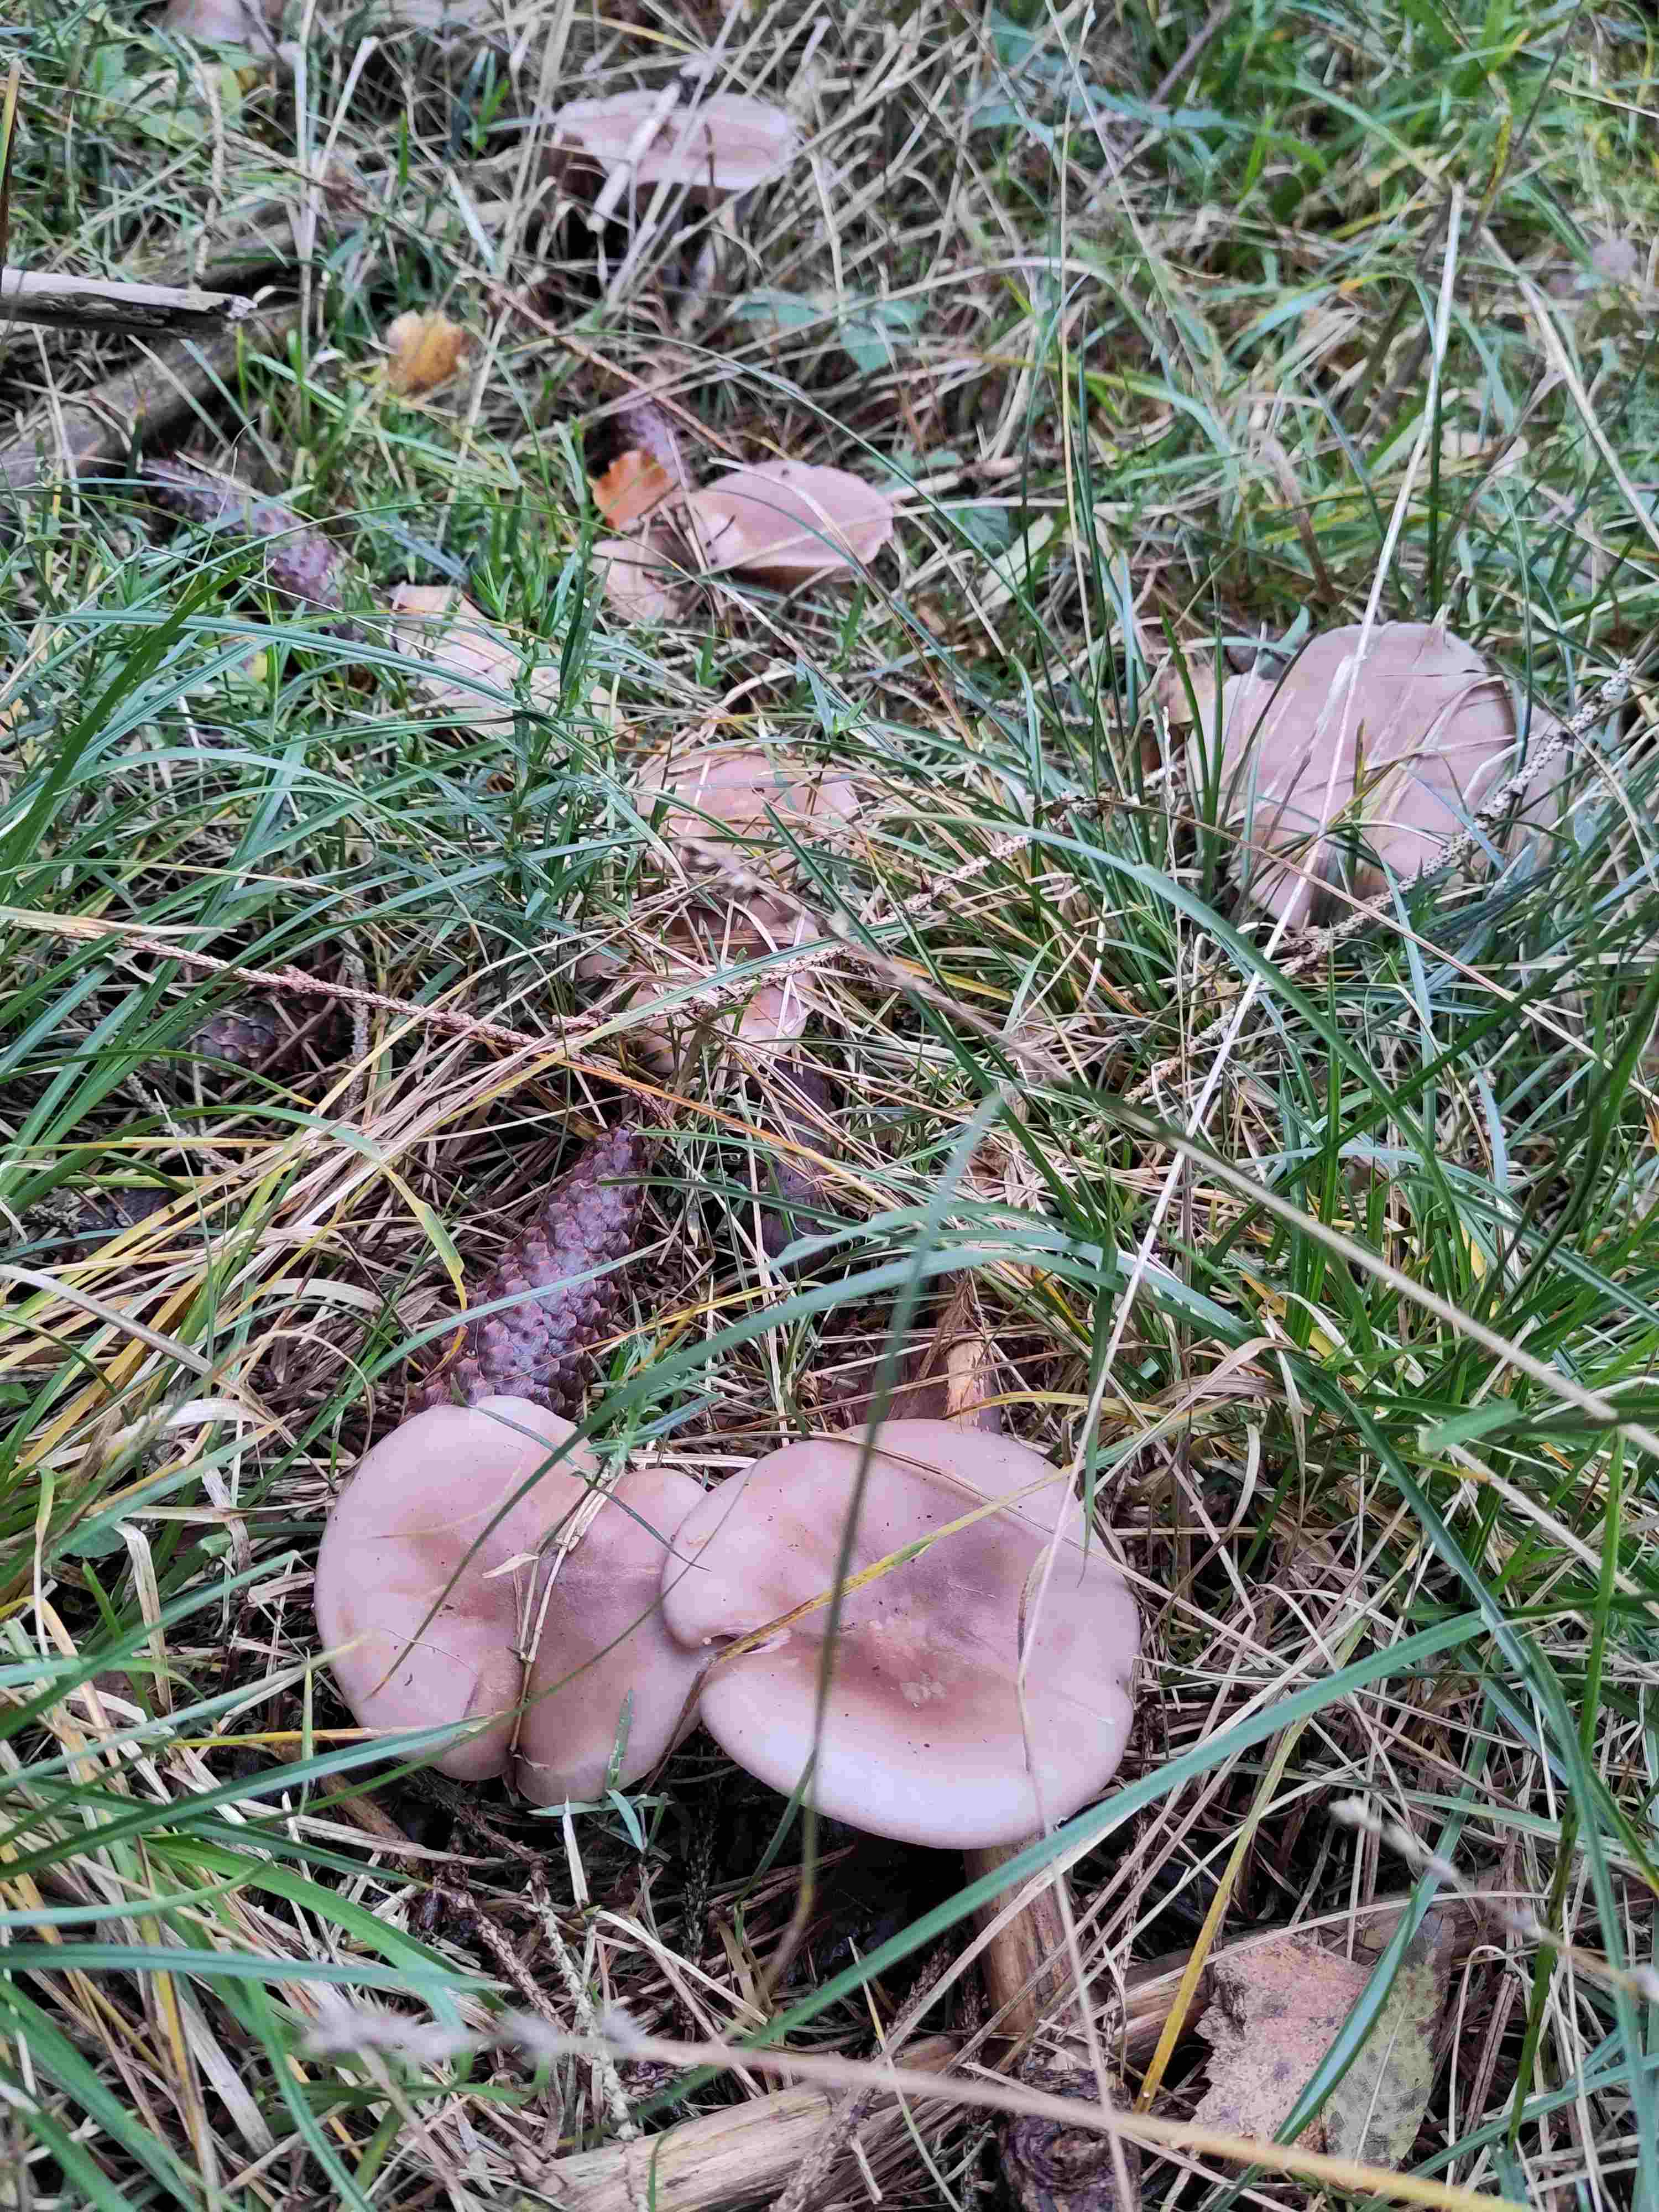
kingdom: Fungi
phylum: Basidiomycota
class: Agaricomycetes
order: Agaricales
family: Tricholomataceae
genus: Lepista
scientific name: Lepista nuda
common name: violet hekseringshat
